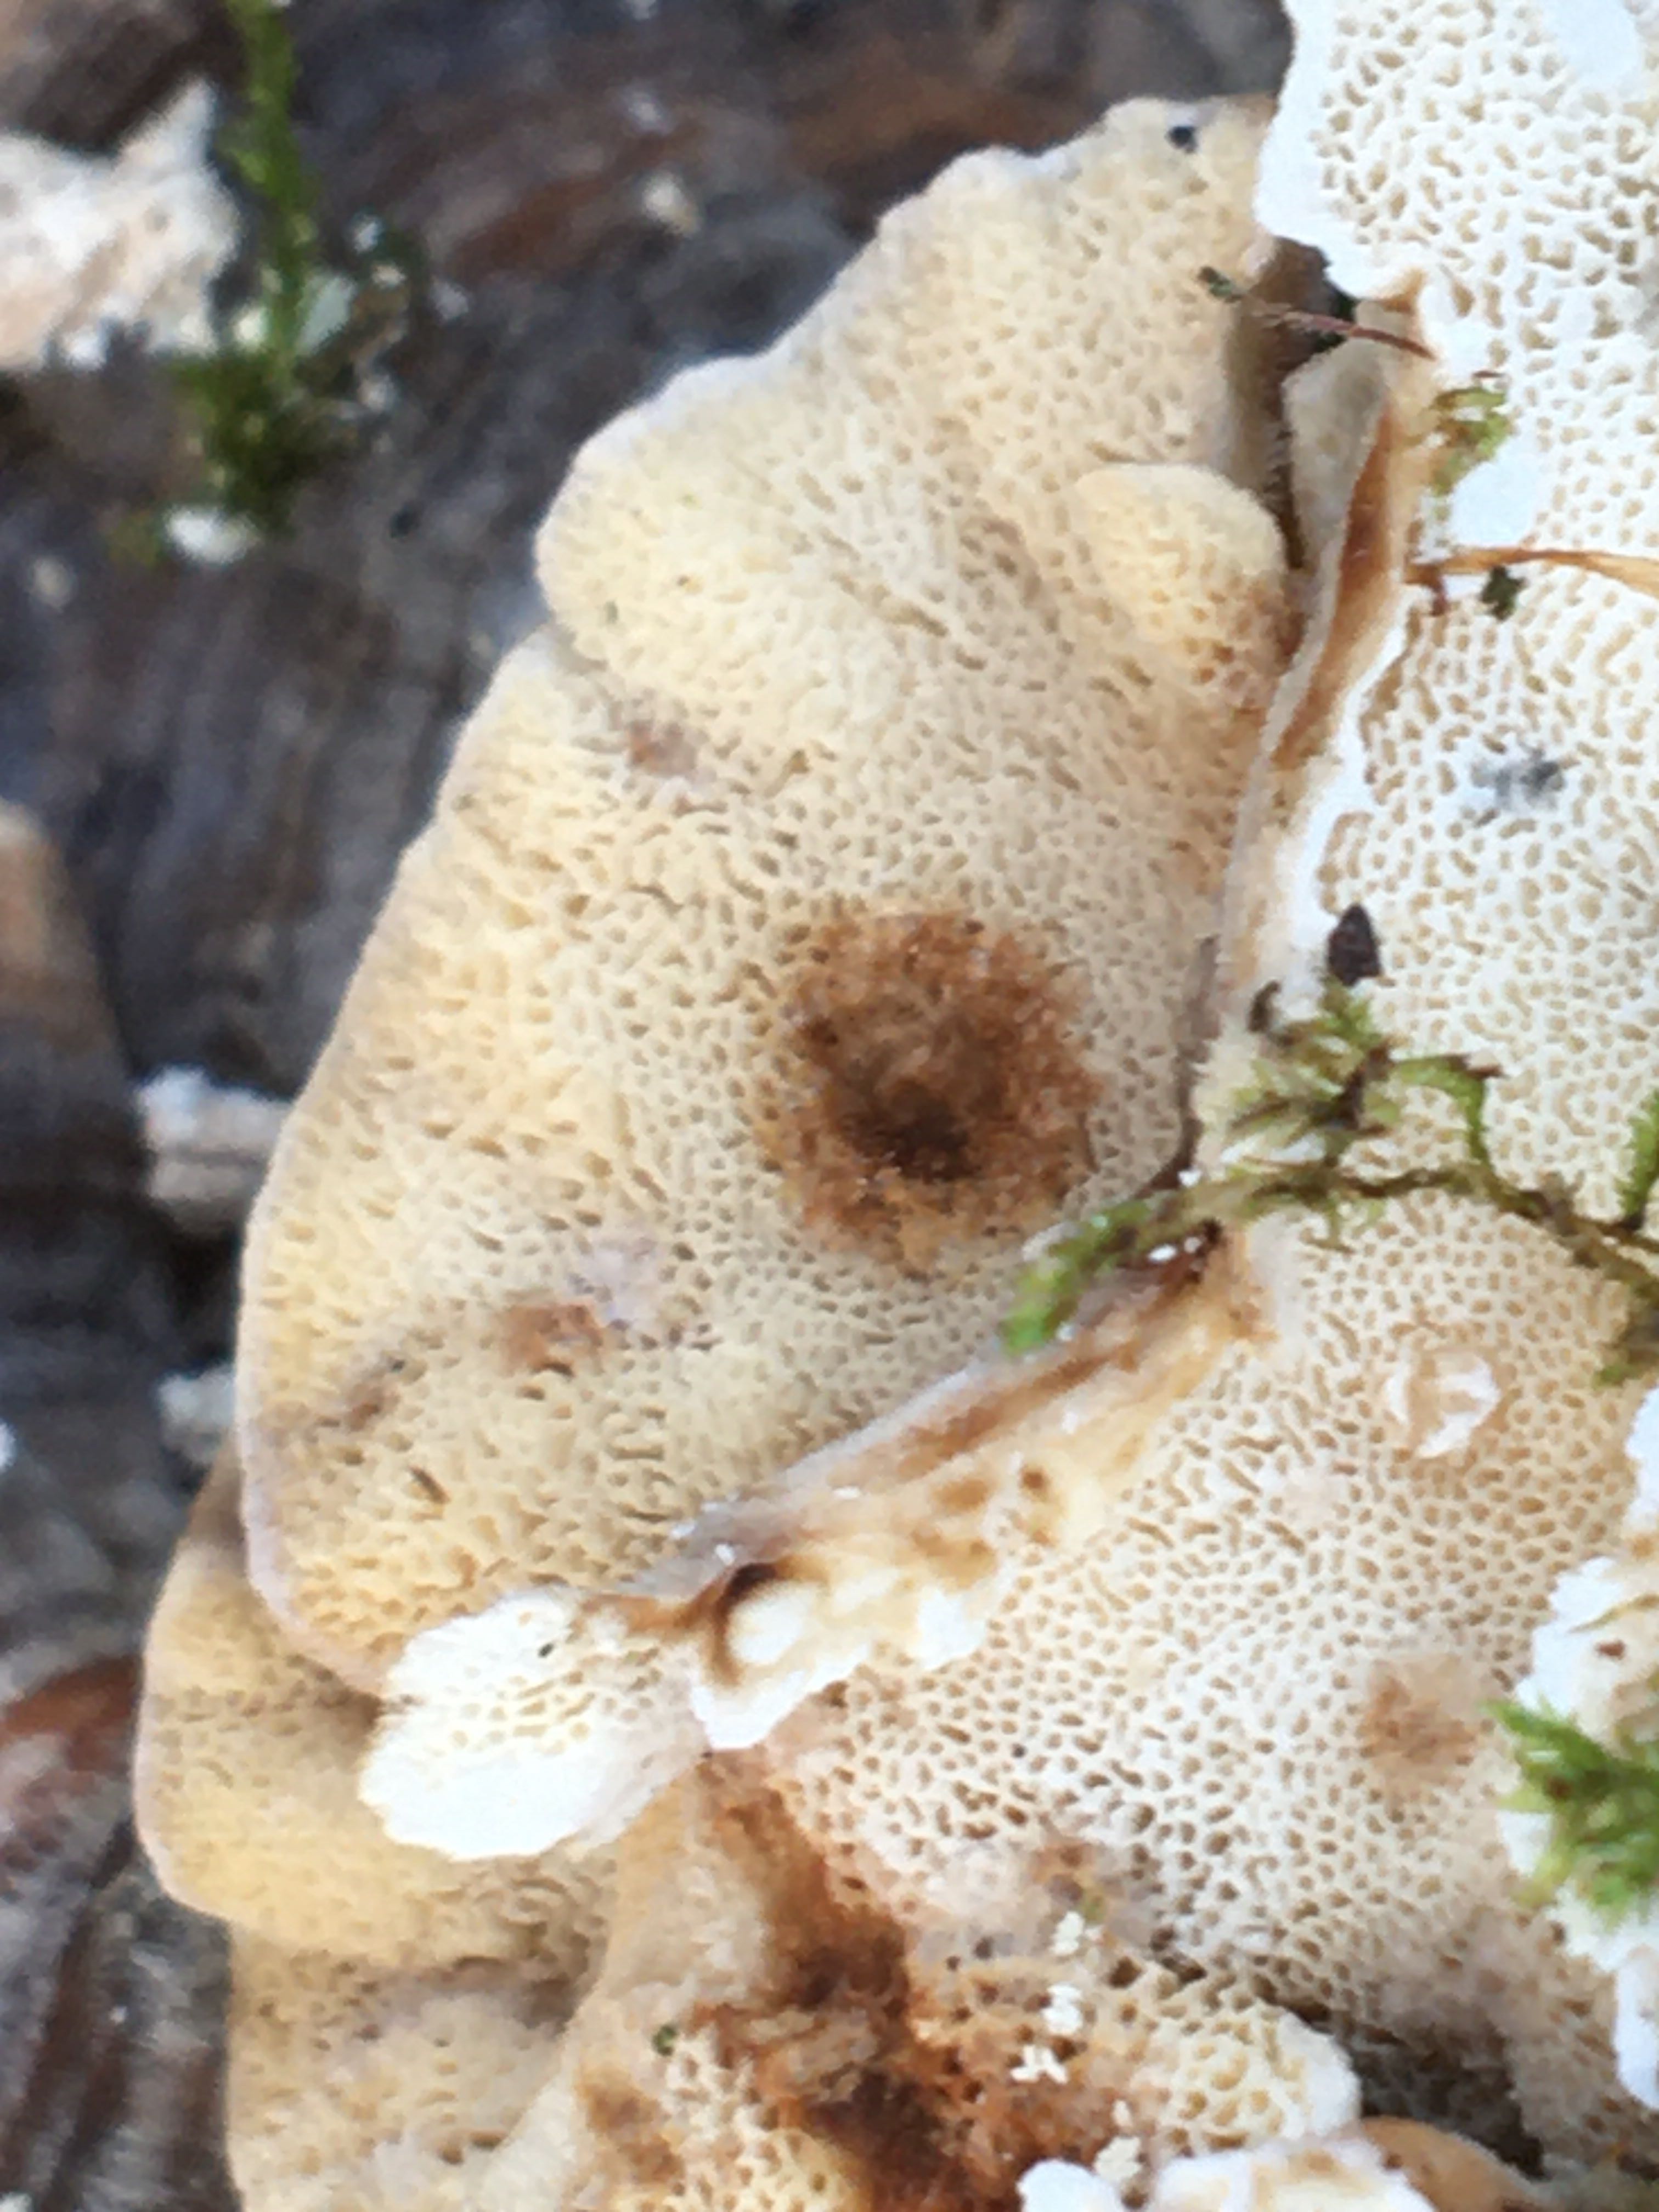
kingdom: Fungi
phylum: Basidiomycota
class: Agaricomycetes
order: Polyporales
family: Polyporaceae
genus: Trametes
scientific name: Trametes versicolor
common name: broget læderporesvamp
